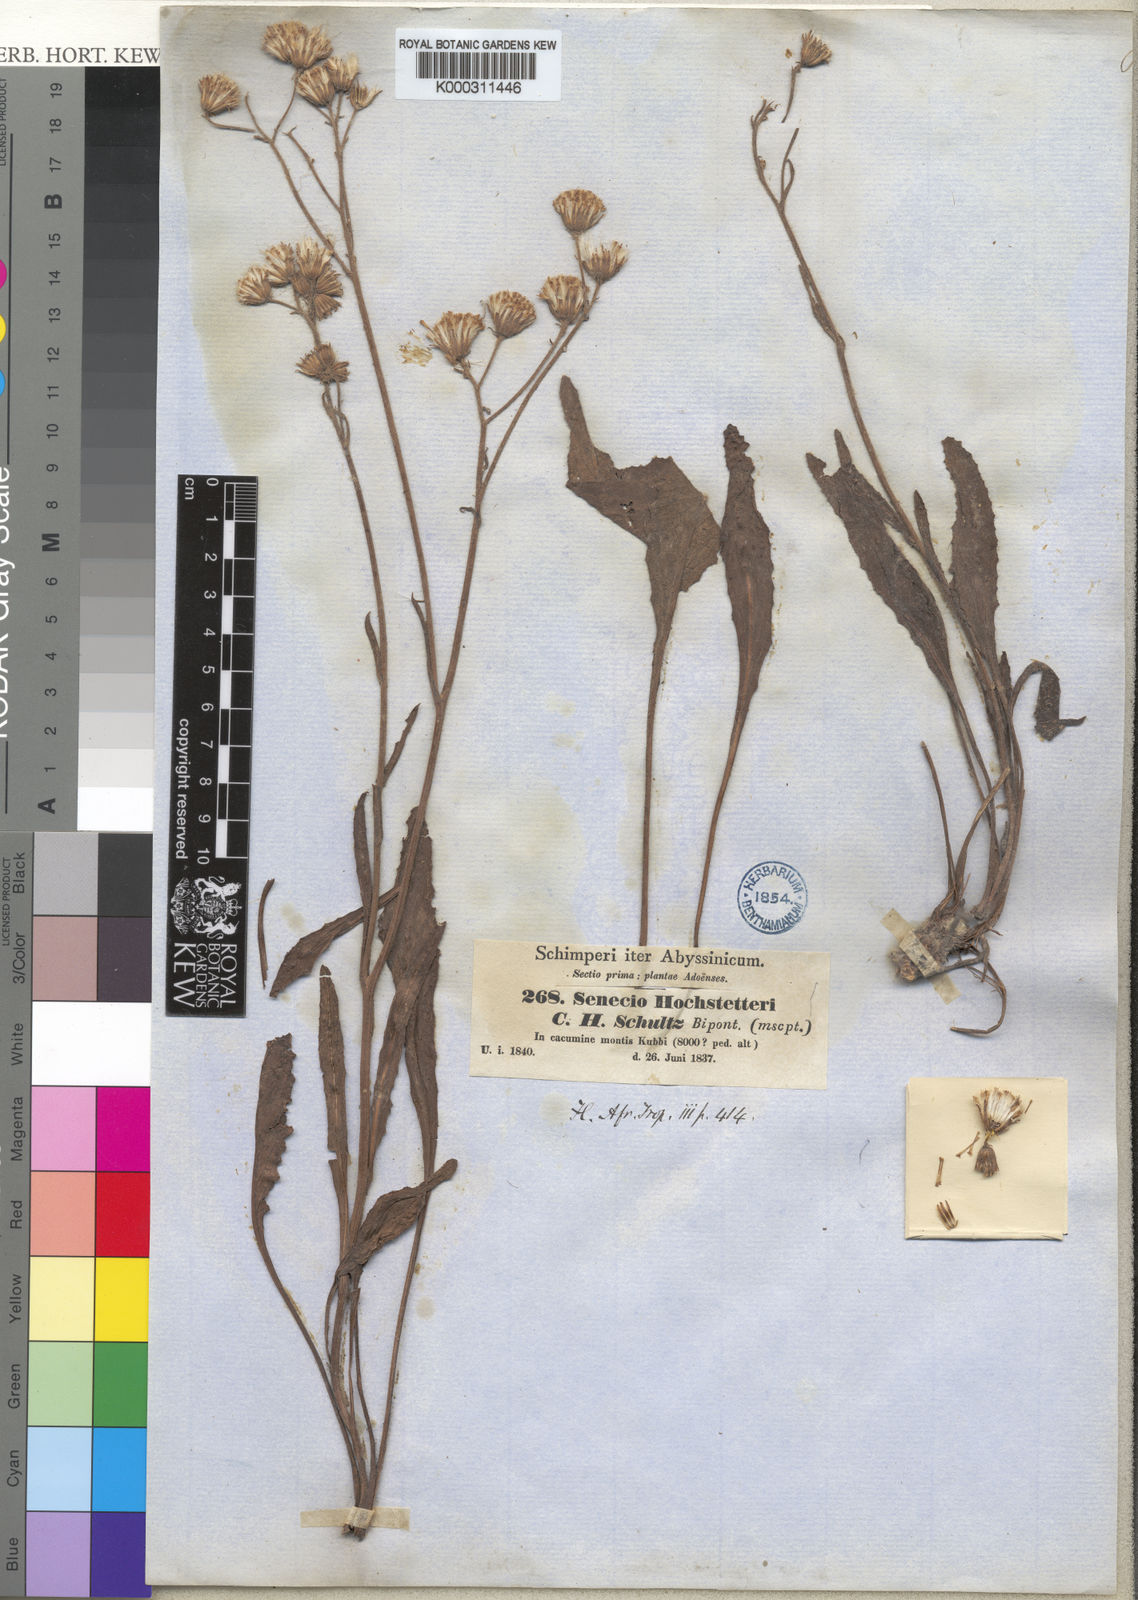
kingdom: Plantae
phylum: Tracheophyta
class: Magnoliopsida
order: Asterales
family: Asteraceae
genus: Senecio
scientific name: Senecio hochstetteri
